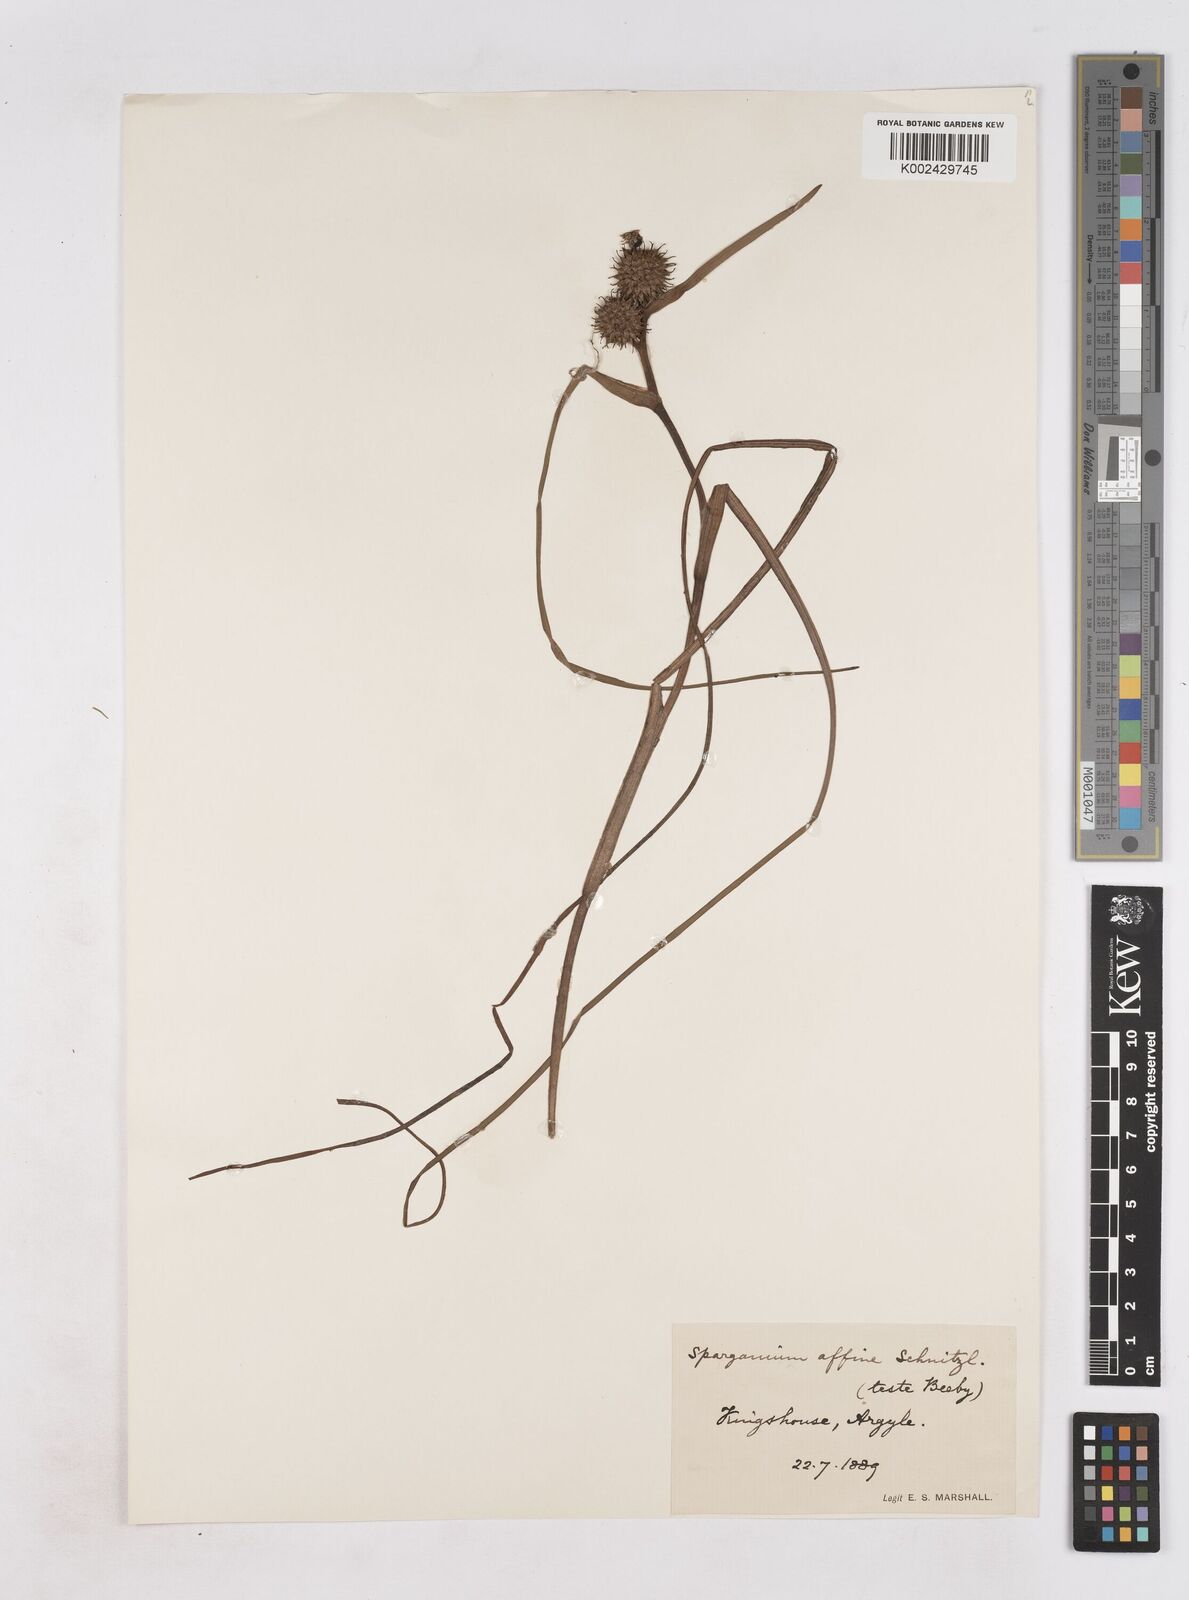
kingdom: Plantae
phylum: Tracheophyta
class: Liliopsida
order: Poales
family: Typhaceae
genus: Sparganium
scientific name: Sparganium angustifolium
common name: Floating bur-reed
